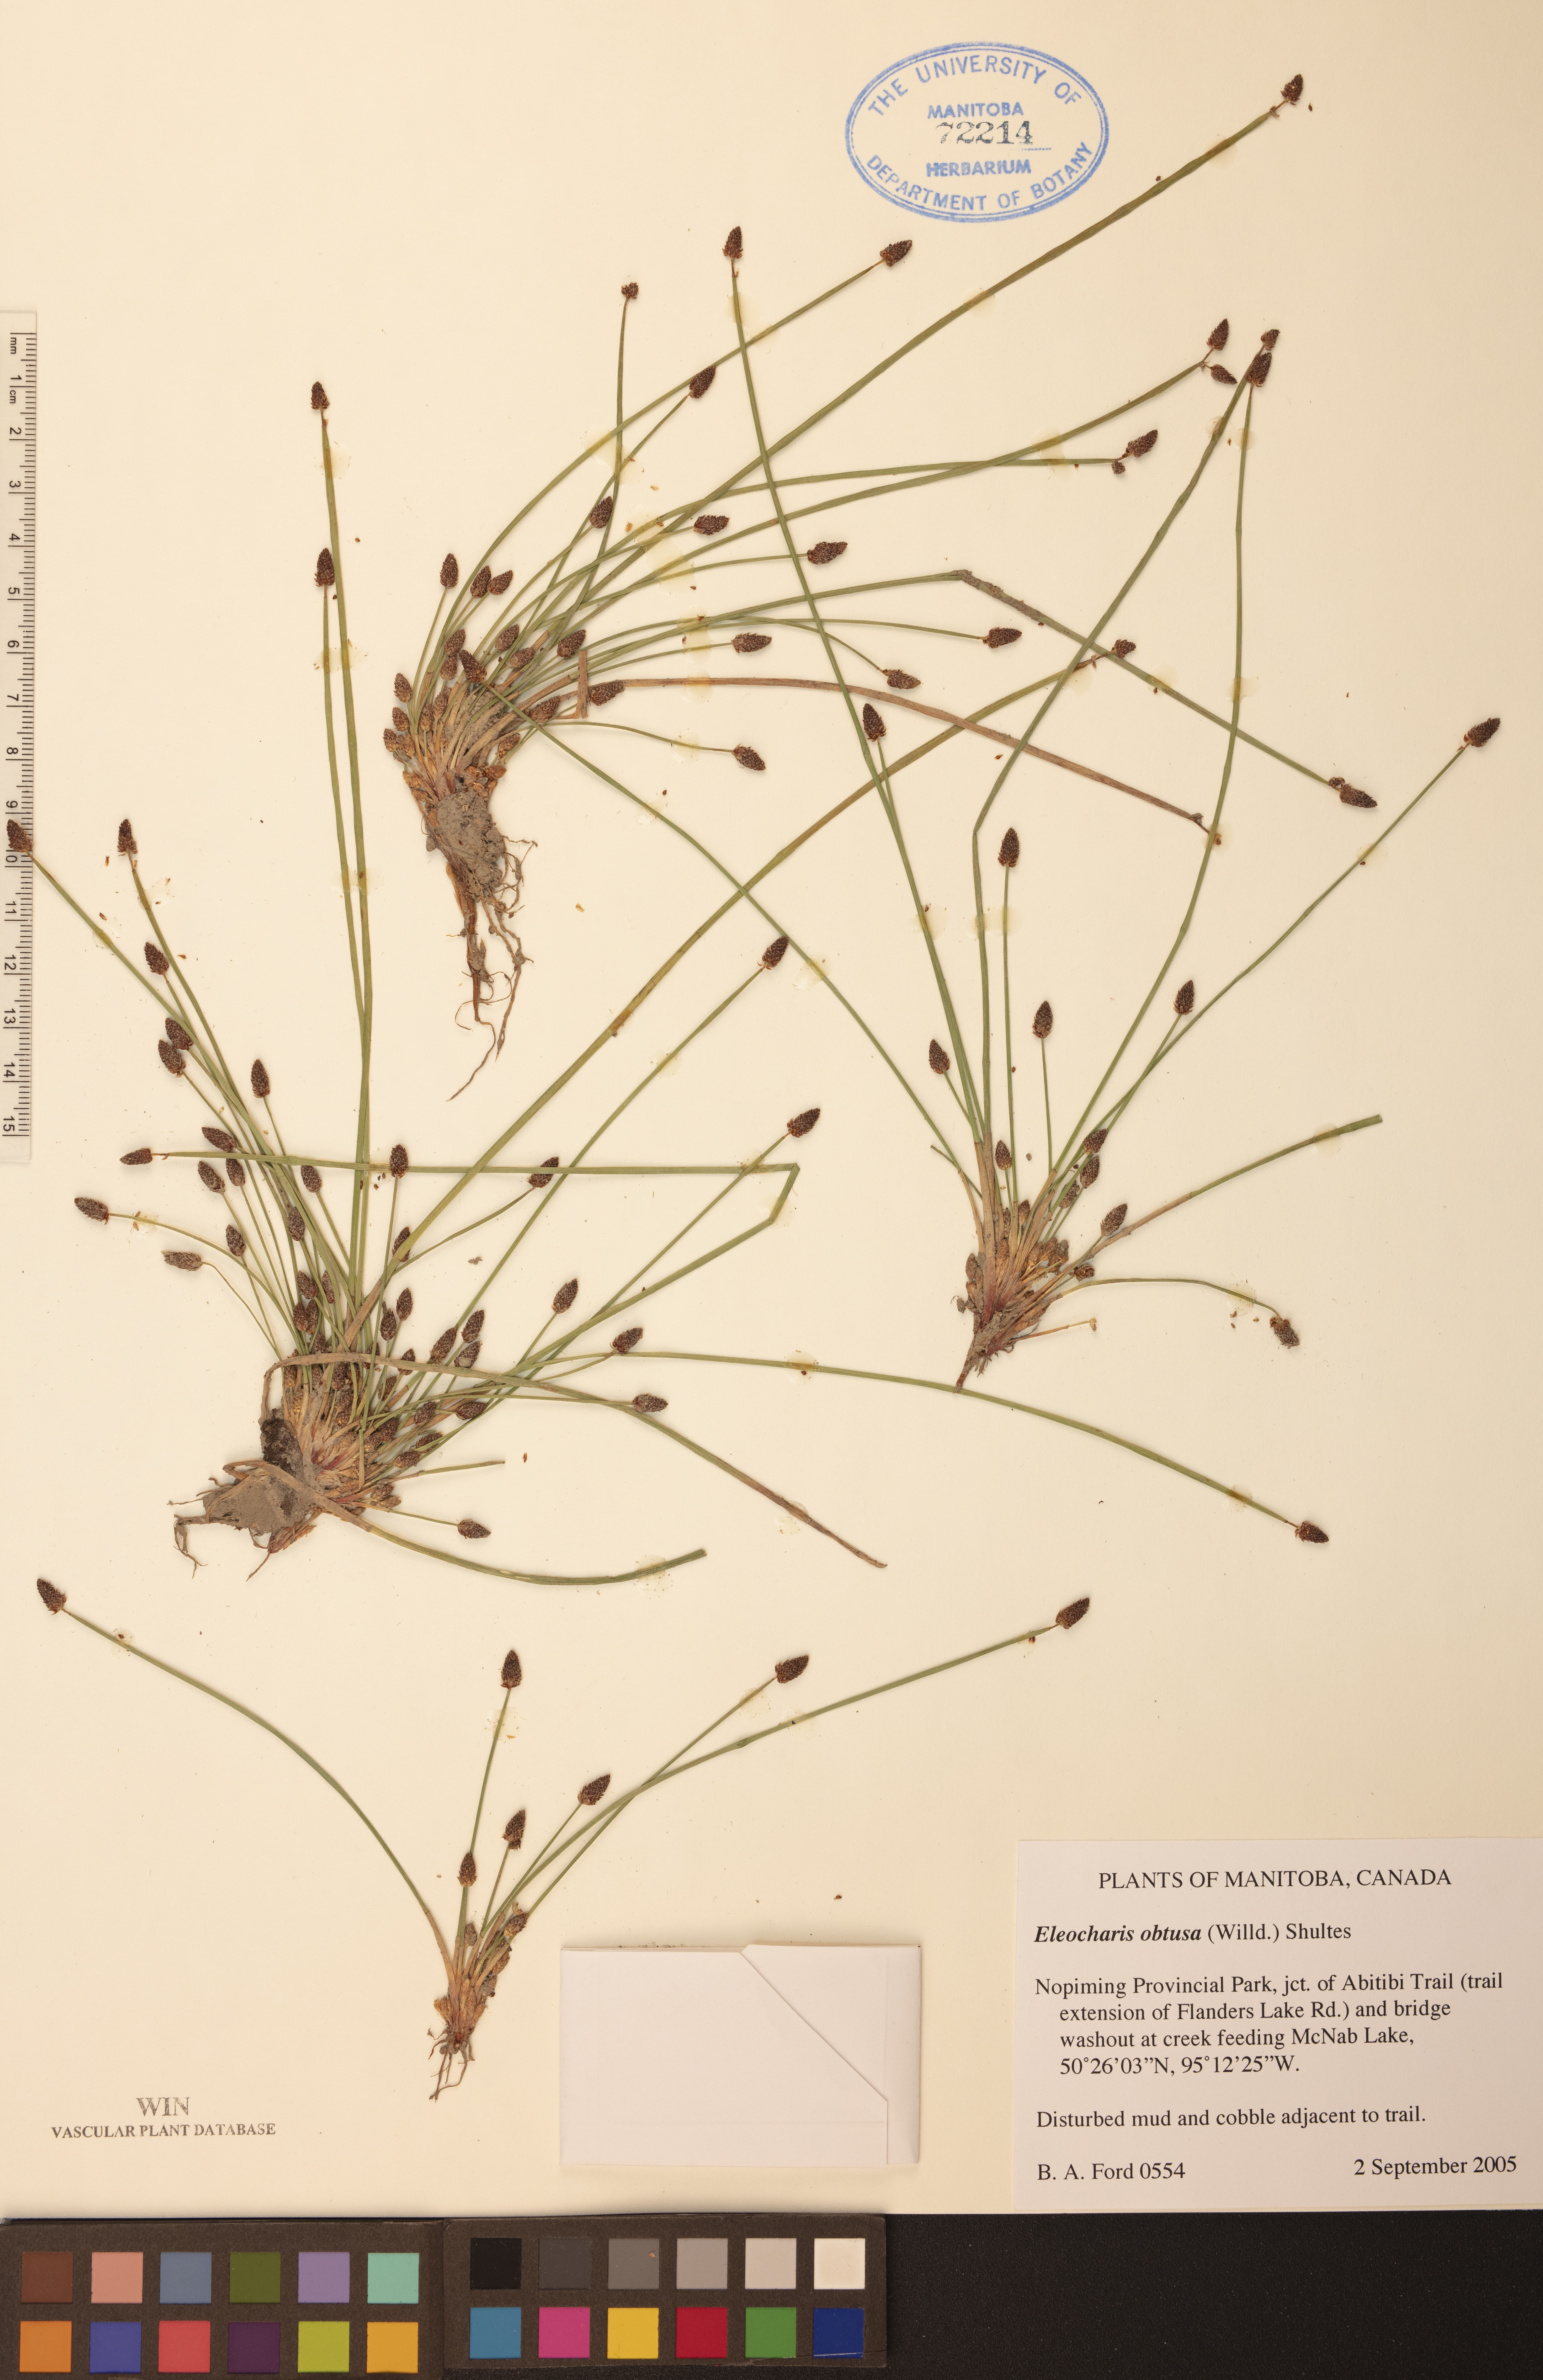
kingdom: Plantae
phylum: Tracheophyta
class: Liliopsida
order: Poales
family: Cyperaceae
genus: Eleocharis
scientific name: Eleocharis obtusa
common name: Blunt spikerush
